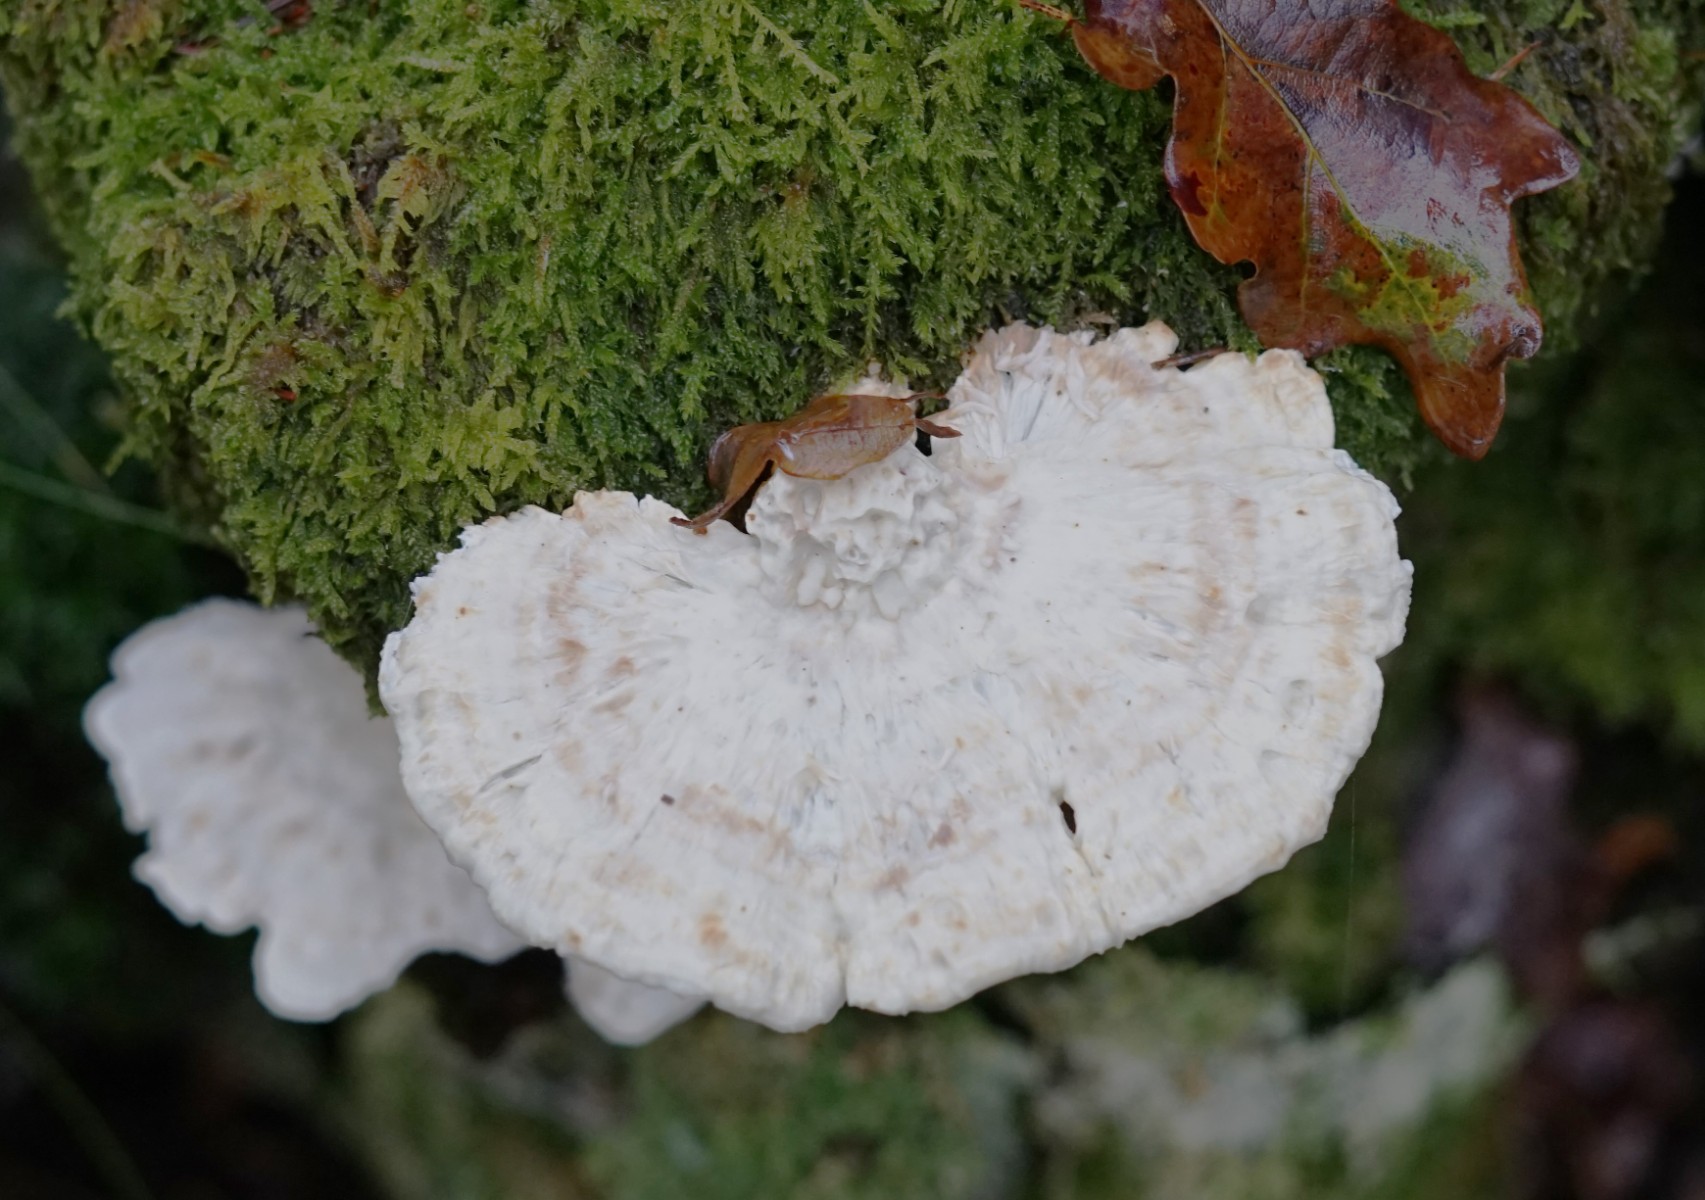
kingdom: Fungi
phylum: Basidiomycota
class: Agaricomycetes
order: Polyporales
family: Fomitopsidaceae
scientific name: Fomitopsidaceae
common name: hovporesvampfamilien
